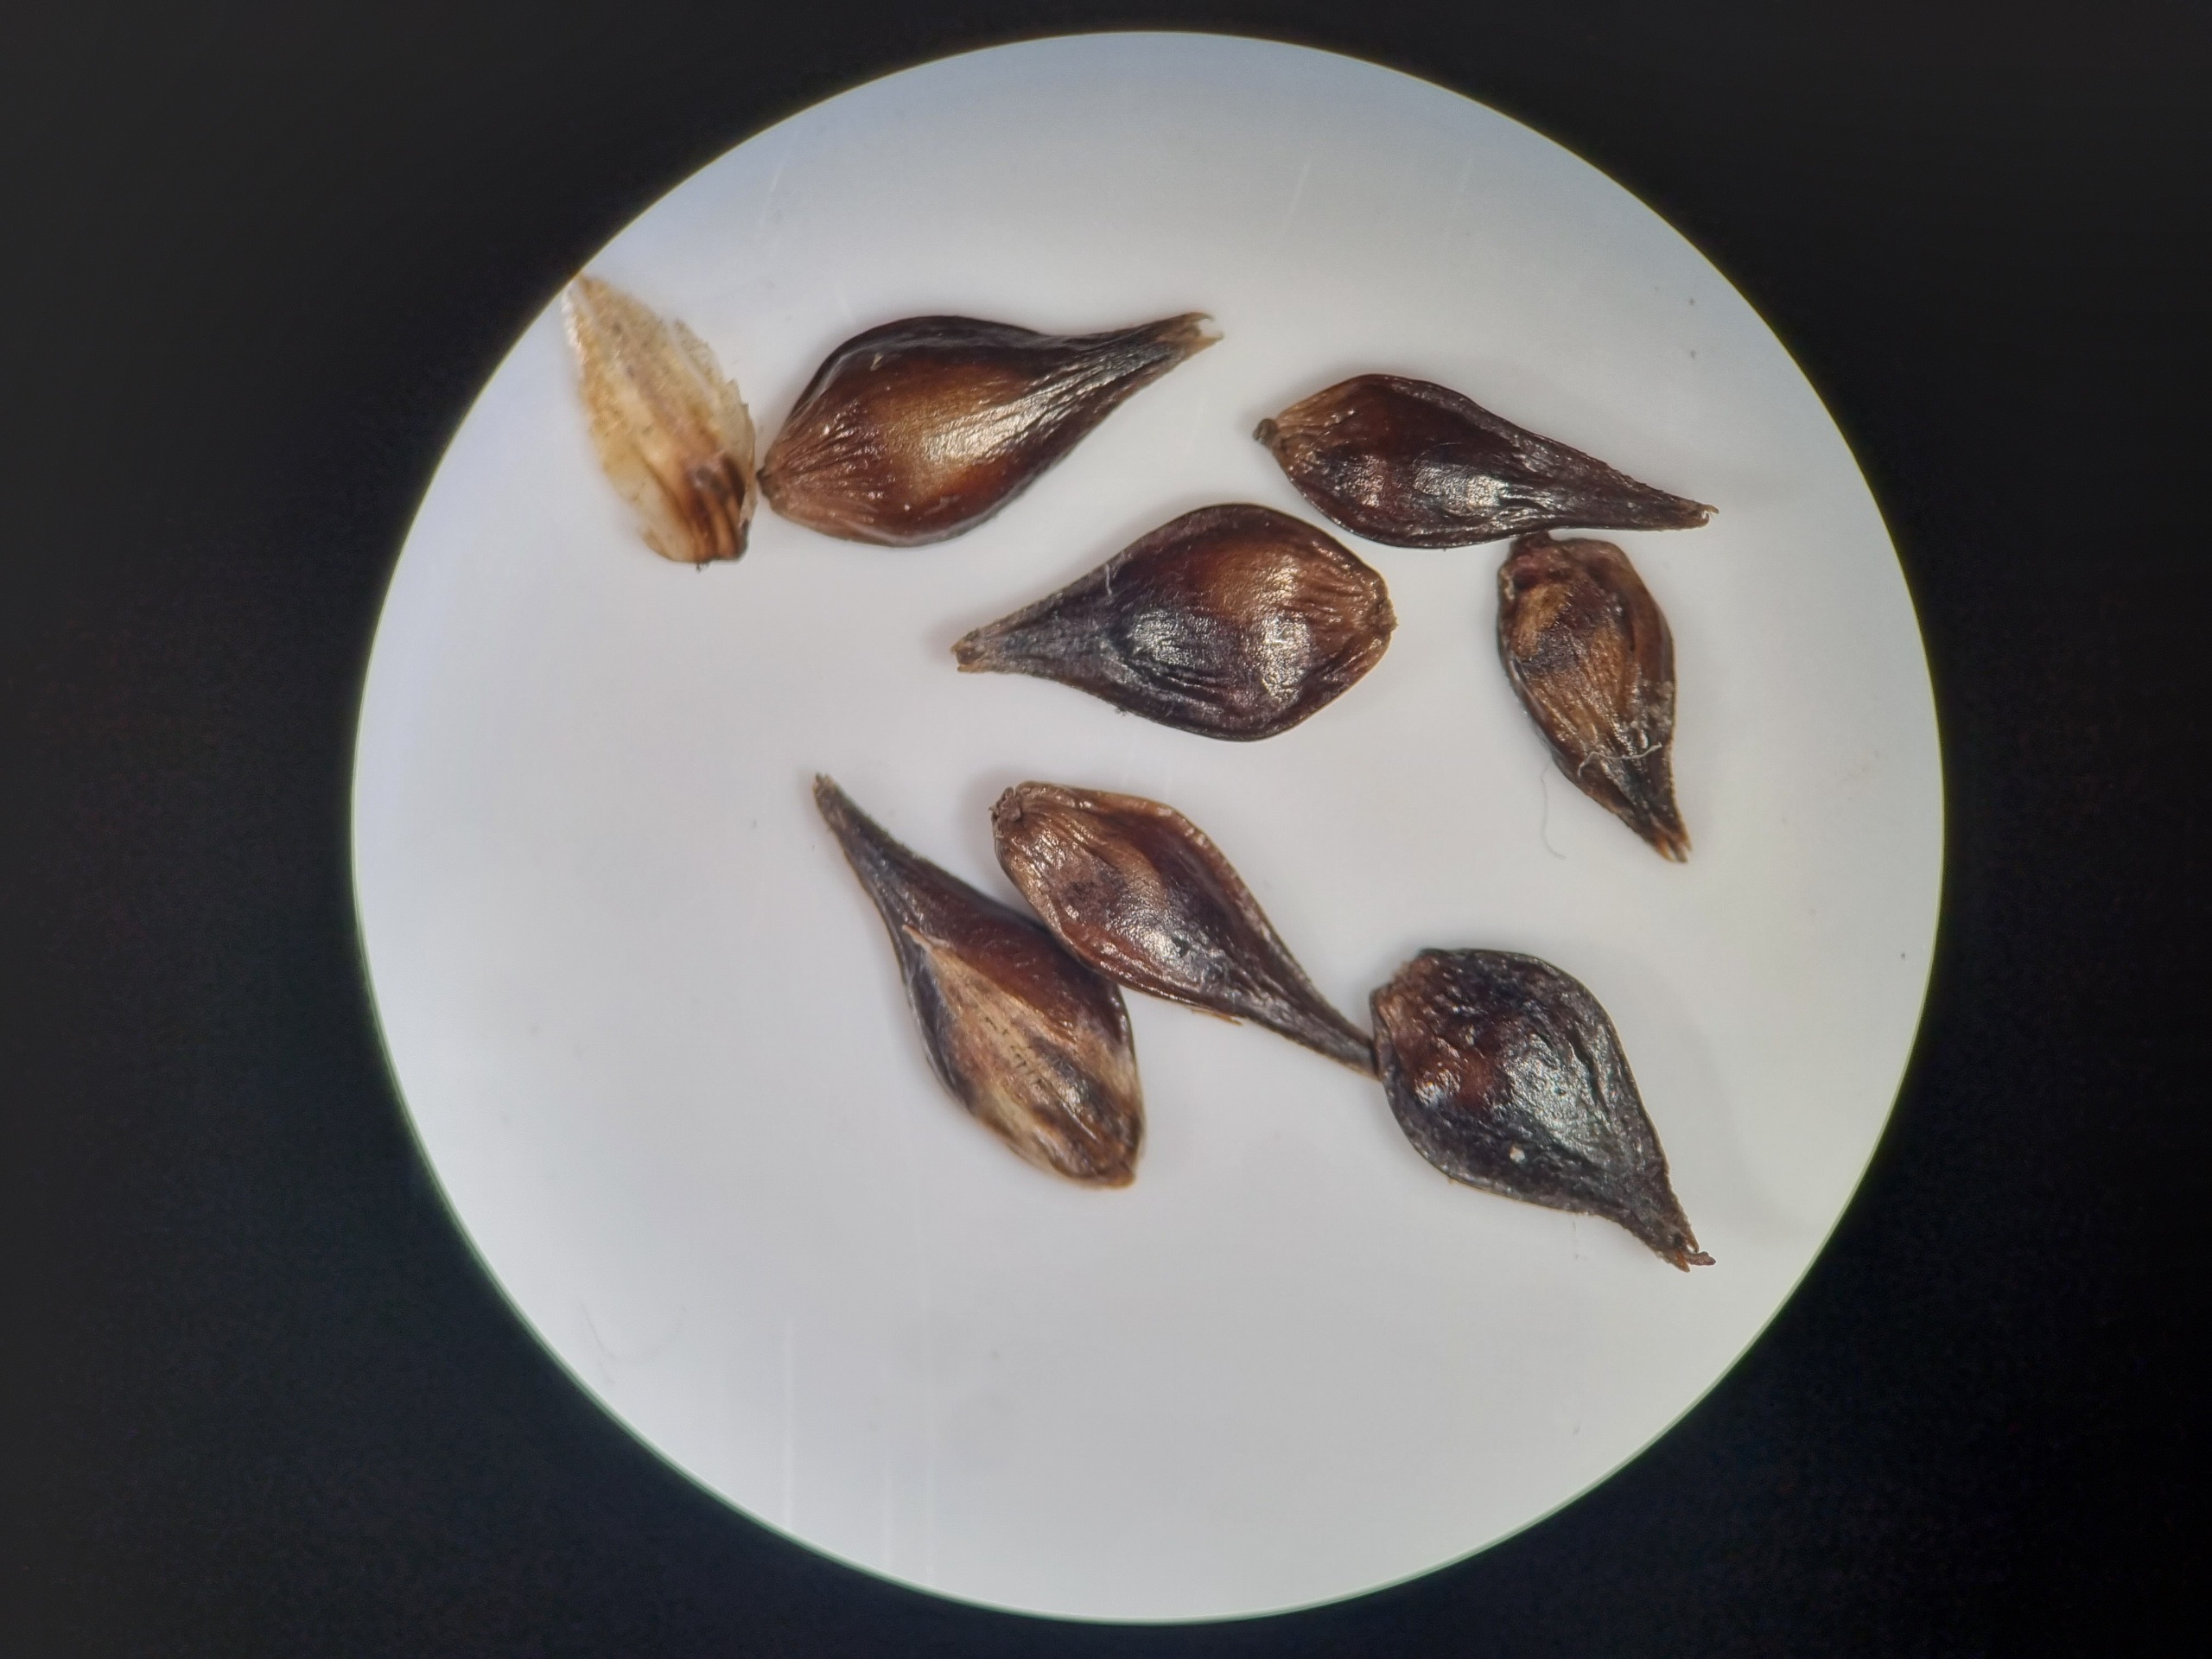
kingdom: Plantae
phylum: Tracheophyta
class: Liliopsida
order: Poales
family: Cyperaceae
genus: Carex
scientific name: Carex leersii
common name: Mellembrudt star (underart)
